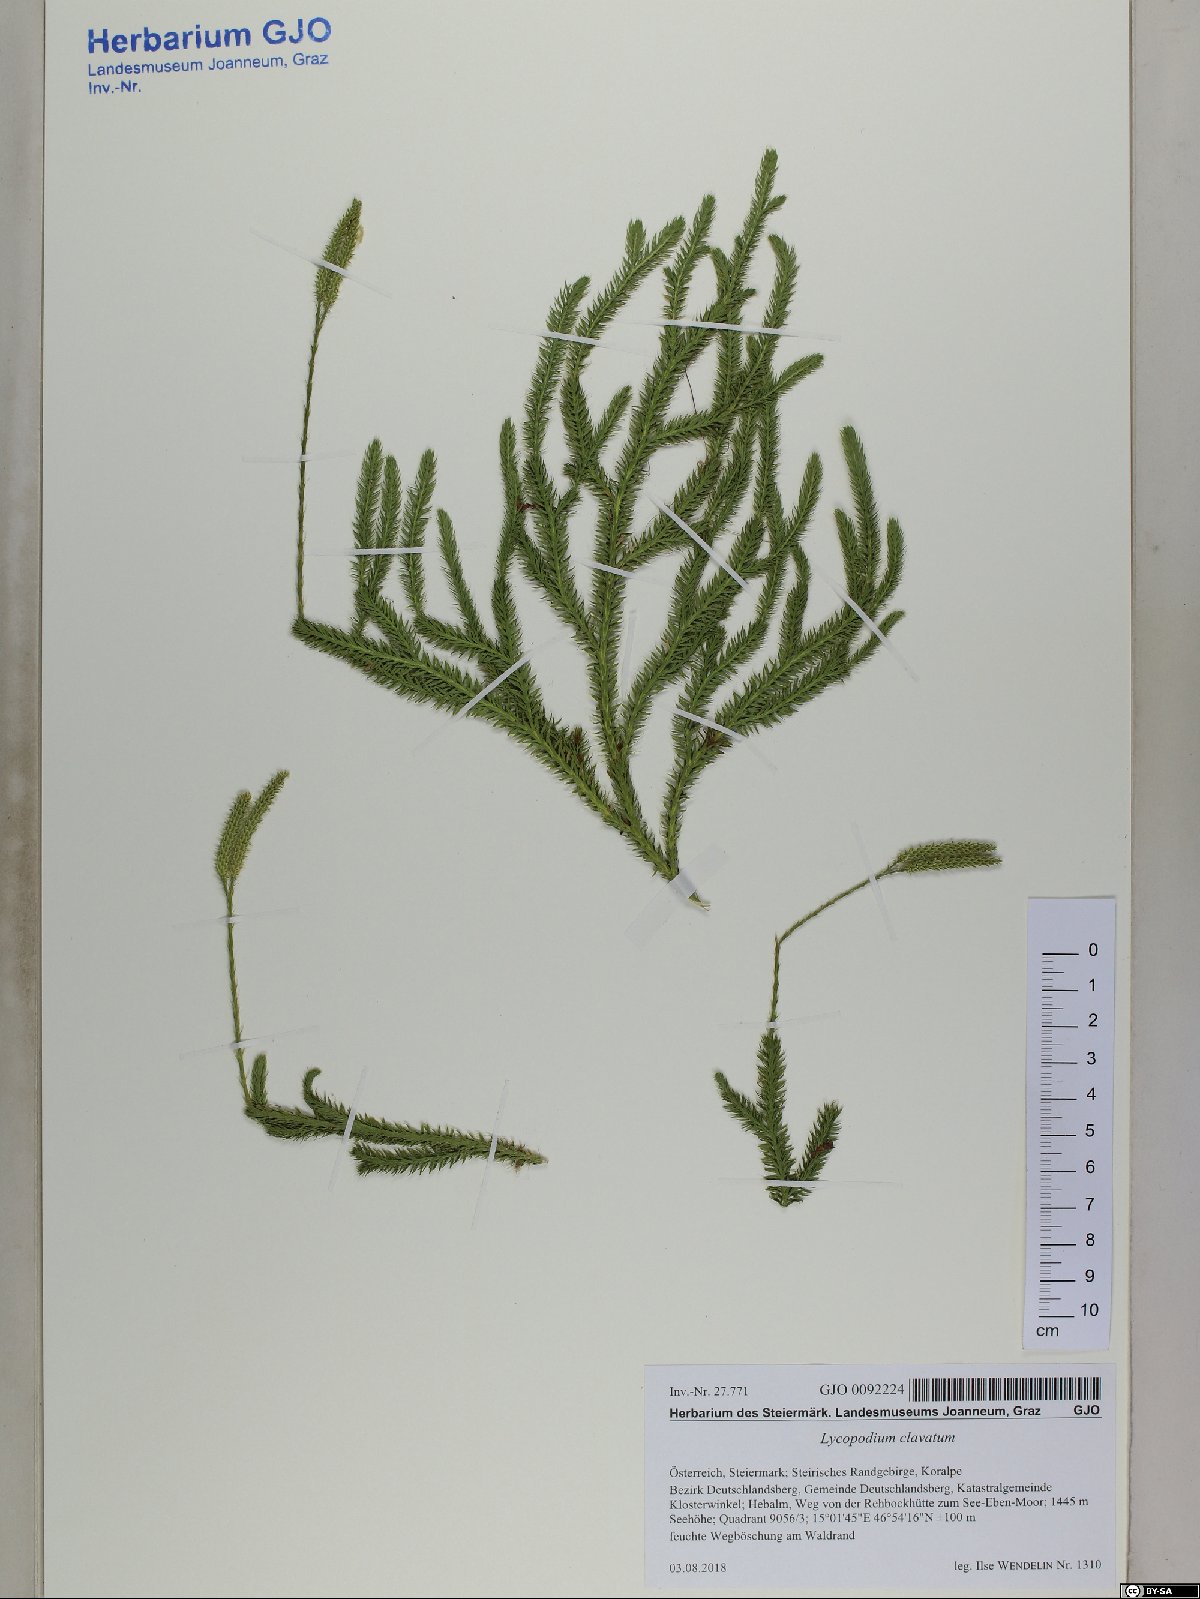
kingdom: Plantae
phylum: Tracheophyta
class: Lycopodiopsida
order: Lycopodiales
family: Lycopodiaceae
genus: Lycopodium
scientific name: Lycopodium clavatum
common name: Stag's-horn clubmoss
